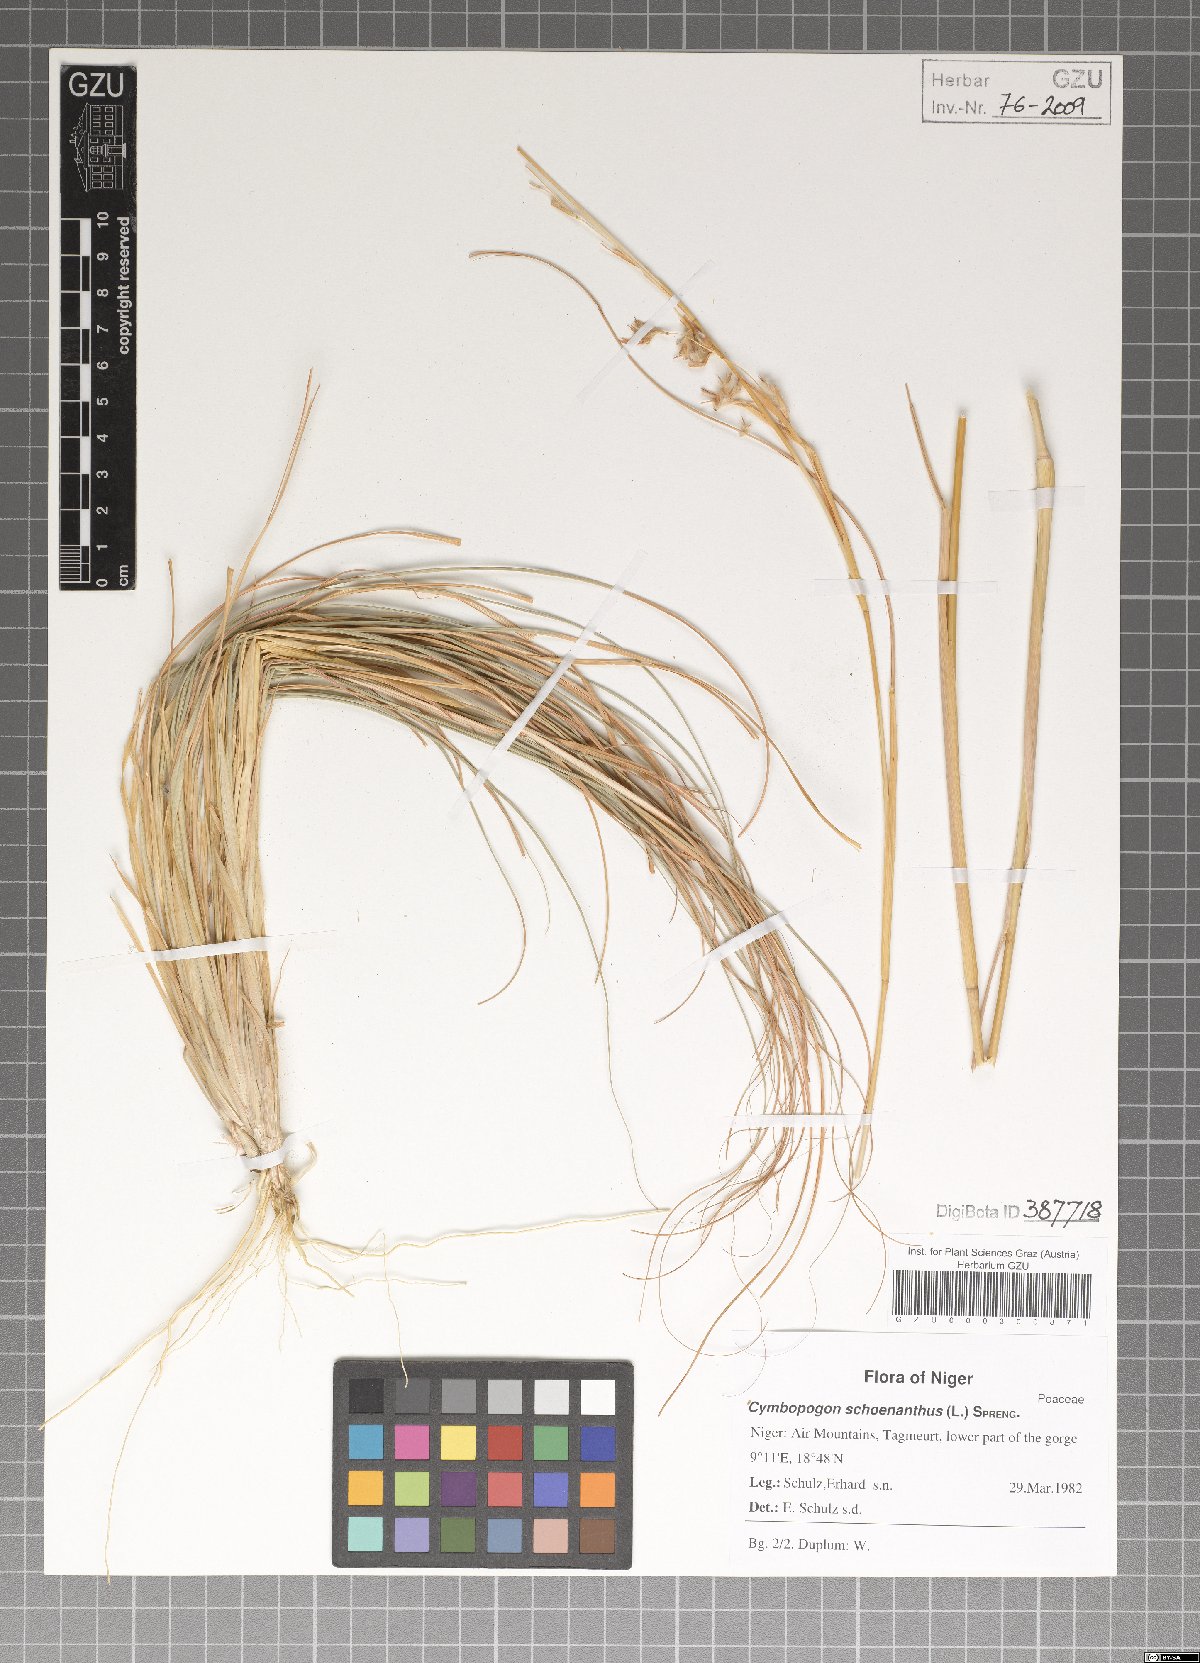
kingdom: Plantae
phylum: Tracheophyta
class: Liliopsida
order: Poales
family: Poaceae
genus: Cymbopogon
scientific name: Cymbopogon schoenanthus
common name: Geranium grass
